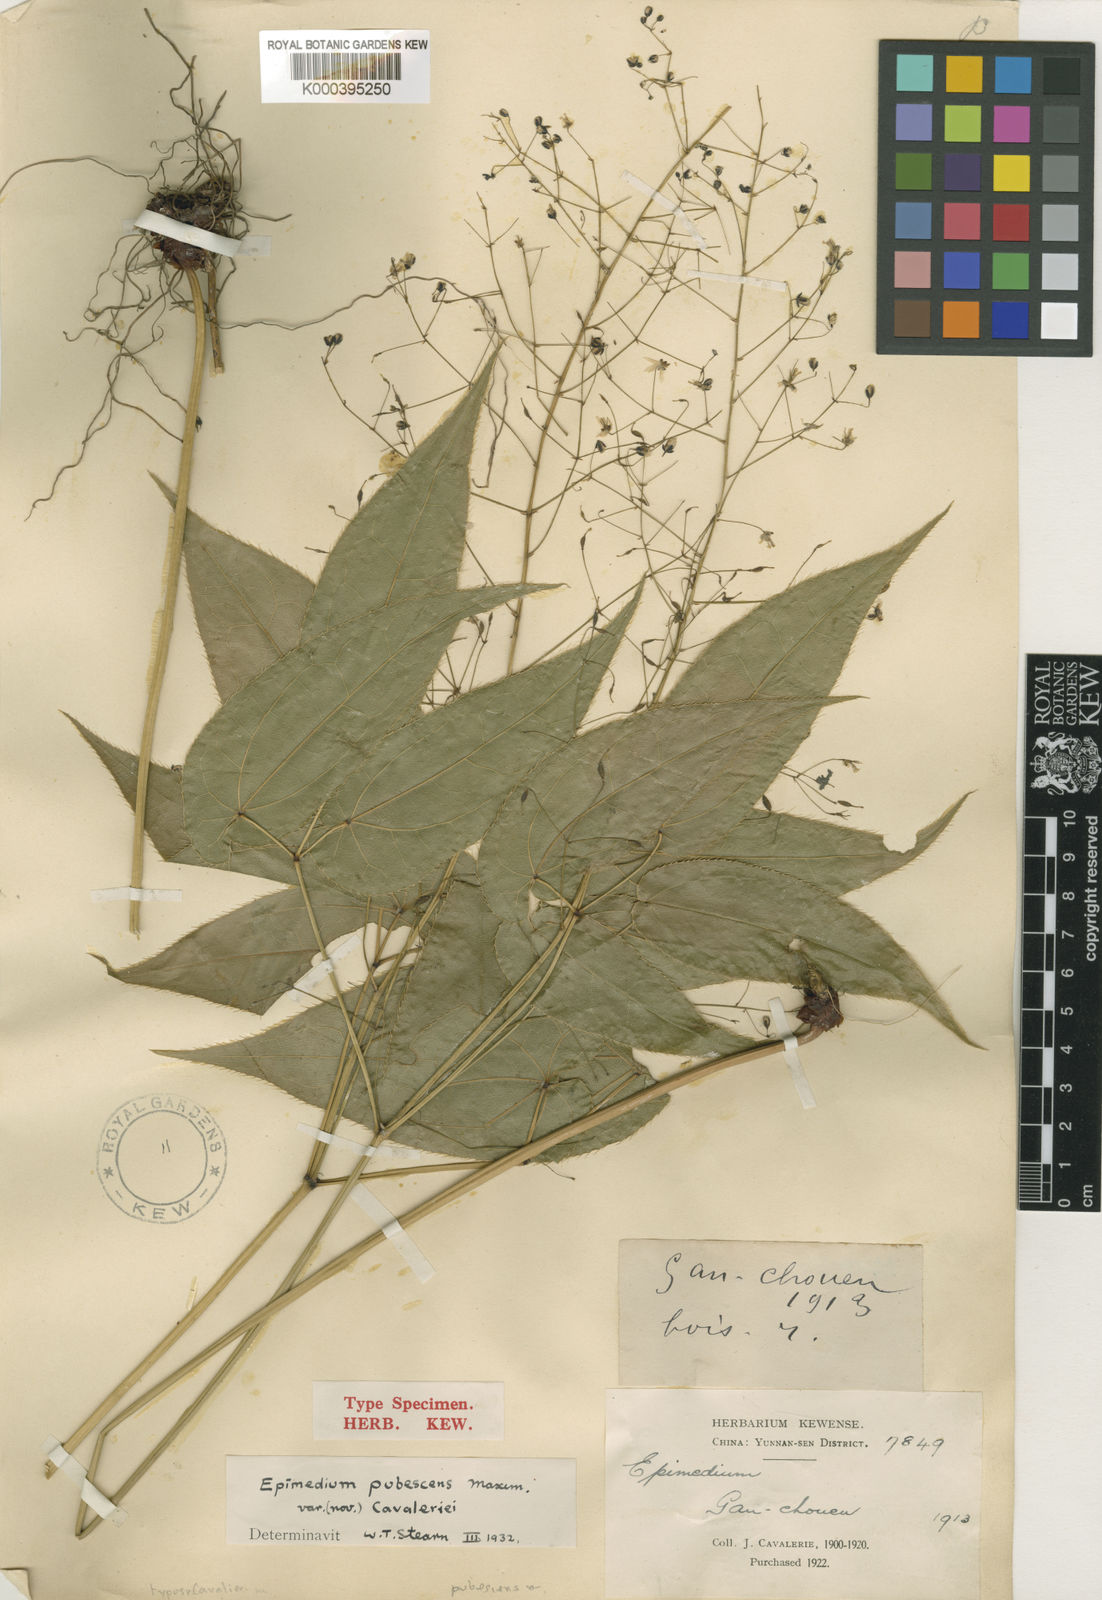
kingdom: Plantae
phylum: Tracheophyta
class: Magnoliopsida
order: Ranunculales
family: Berberidaceae
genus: Epimedium
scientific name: Epimedium pubescens
